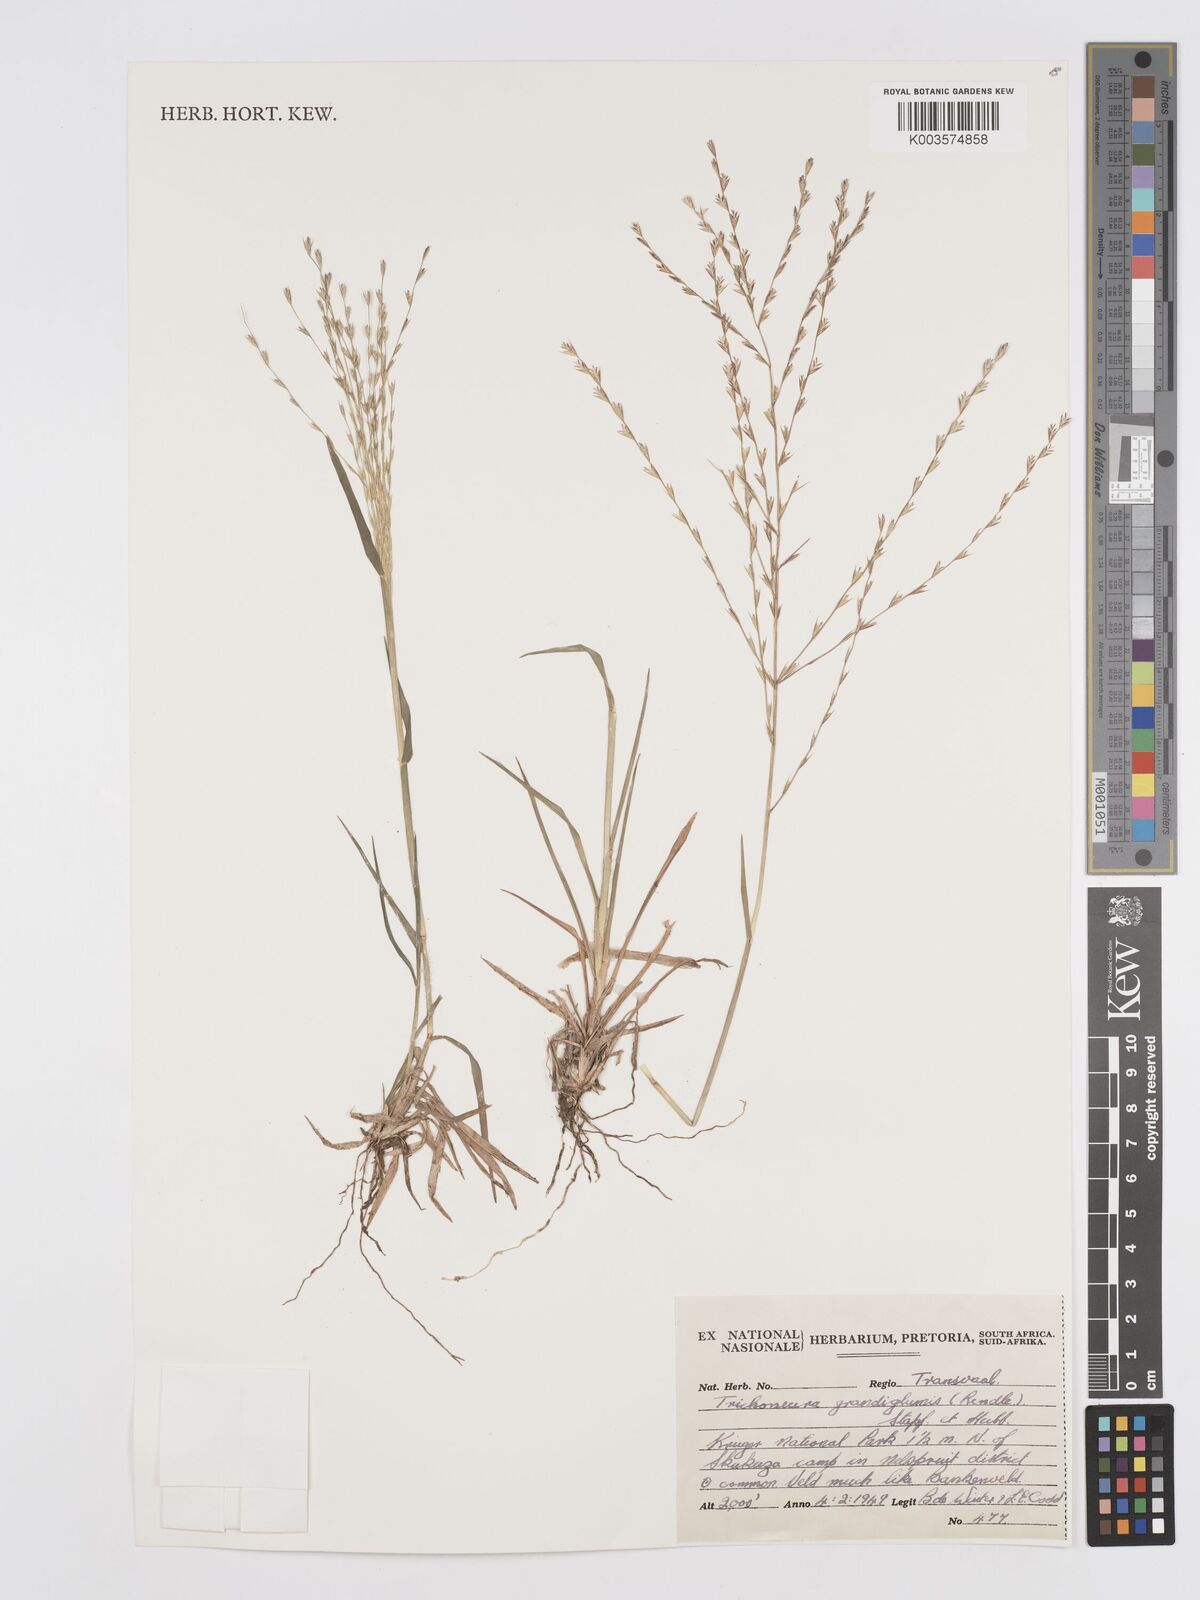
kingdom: Plantae
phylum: Tracheophyta
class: Liliopsida
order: Poales
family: Poaceae
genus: Trichoneura
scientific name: Trichoneura grandiglumis
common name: Rolling grass
